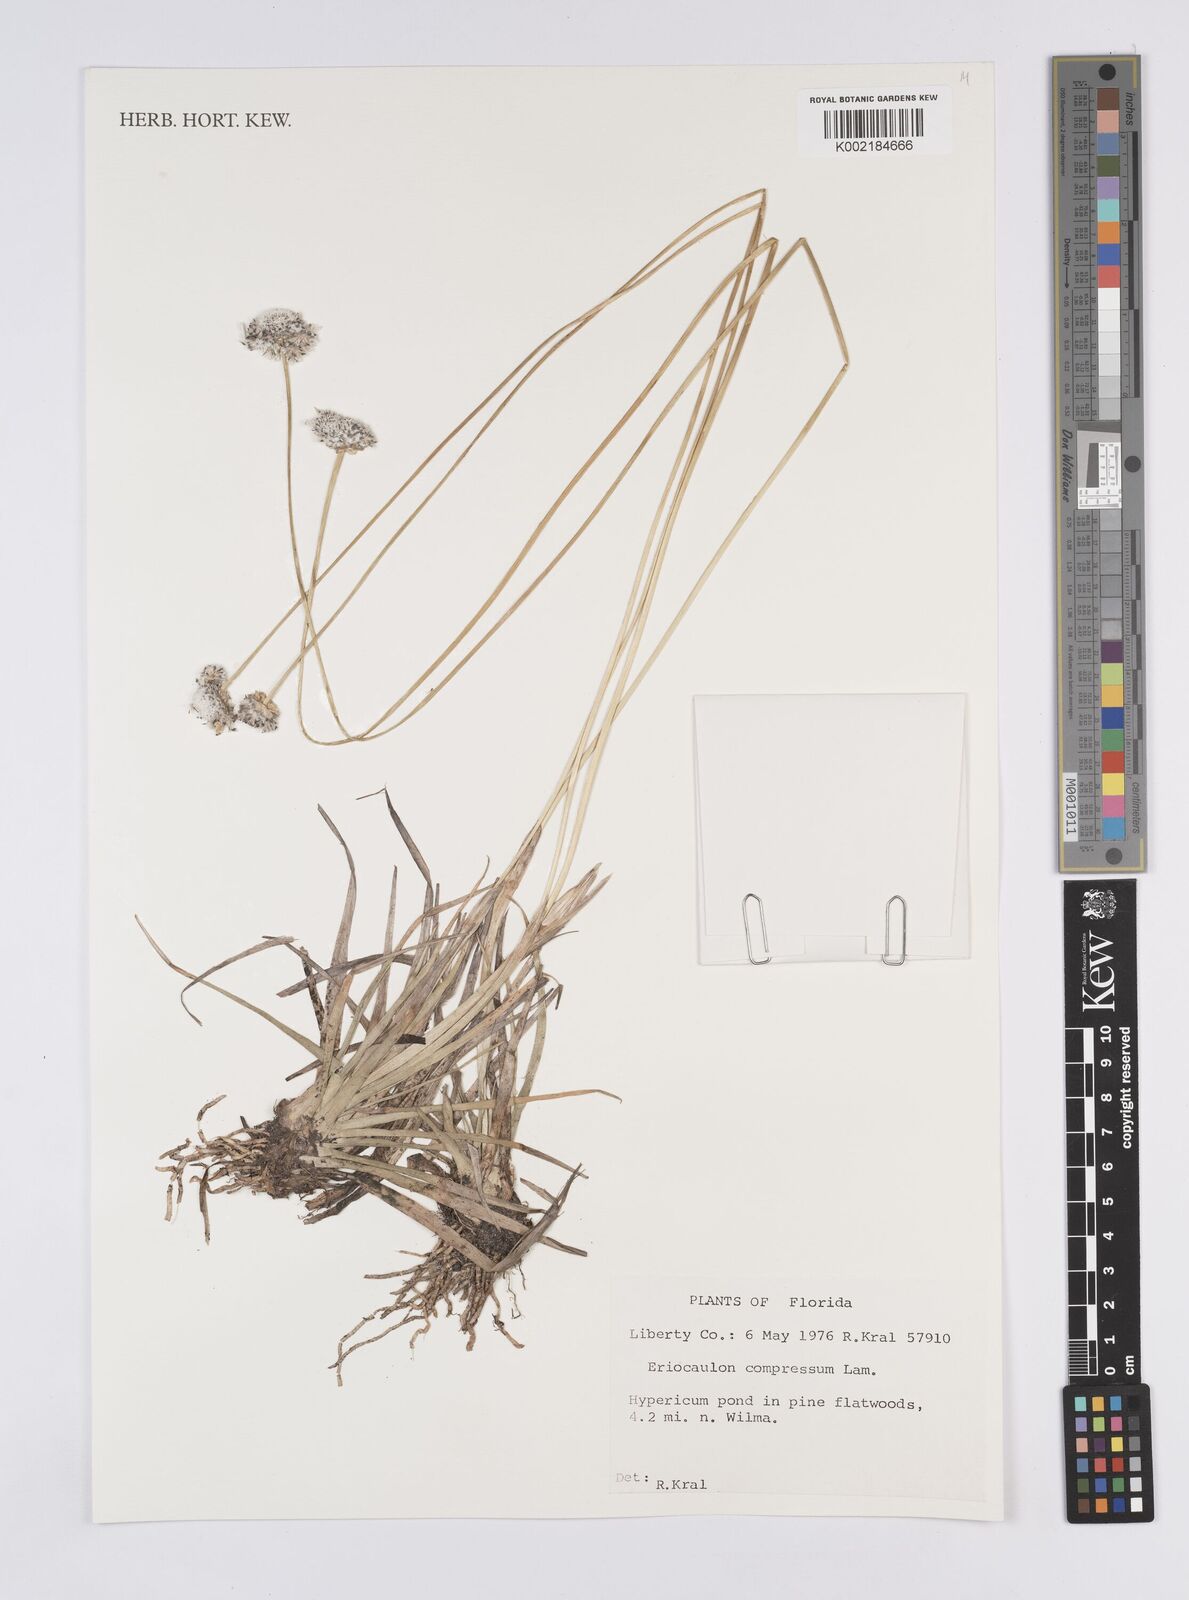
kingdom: Plantae
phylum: Tracheophyta
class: Liliopsida
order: Poales
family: Eriocaulaceae
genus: Eriocaulon
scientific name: Eriocaulon compressum
